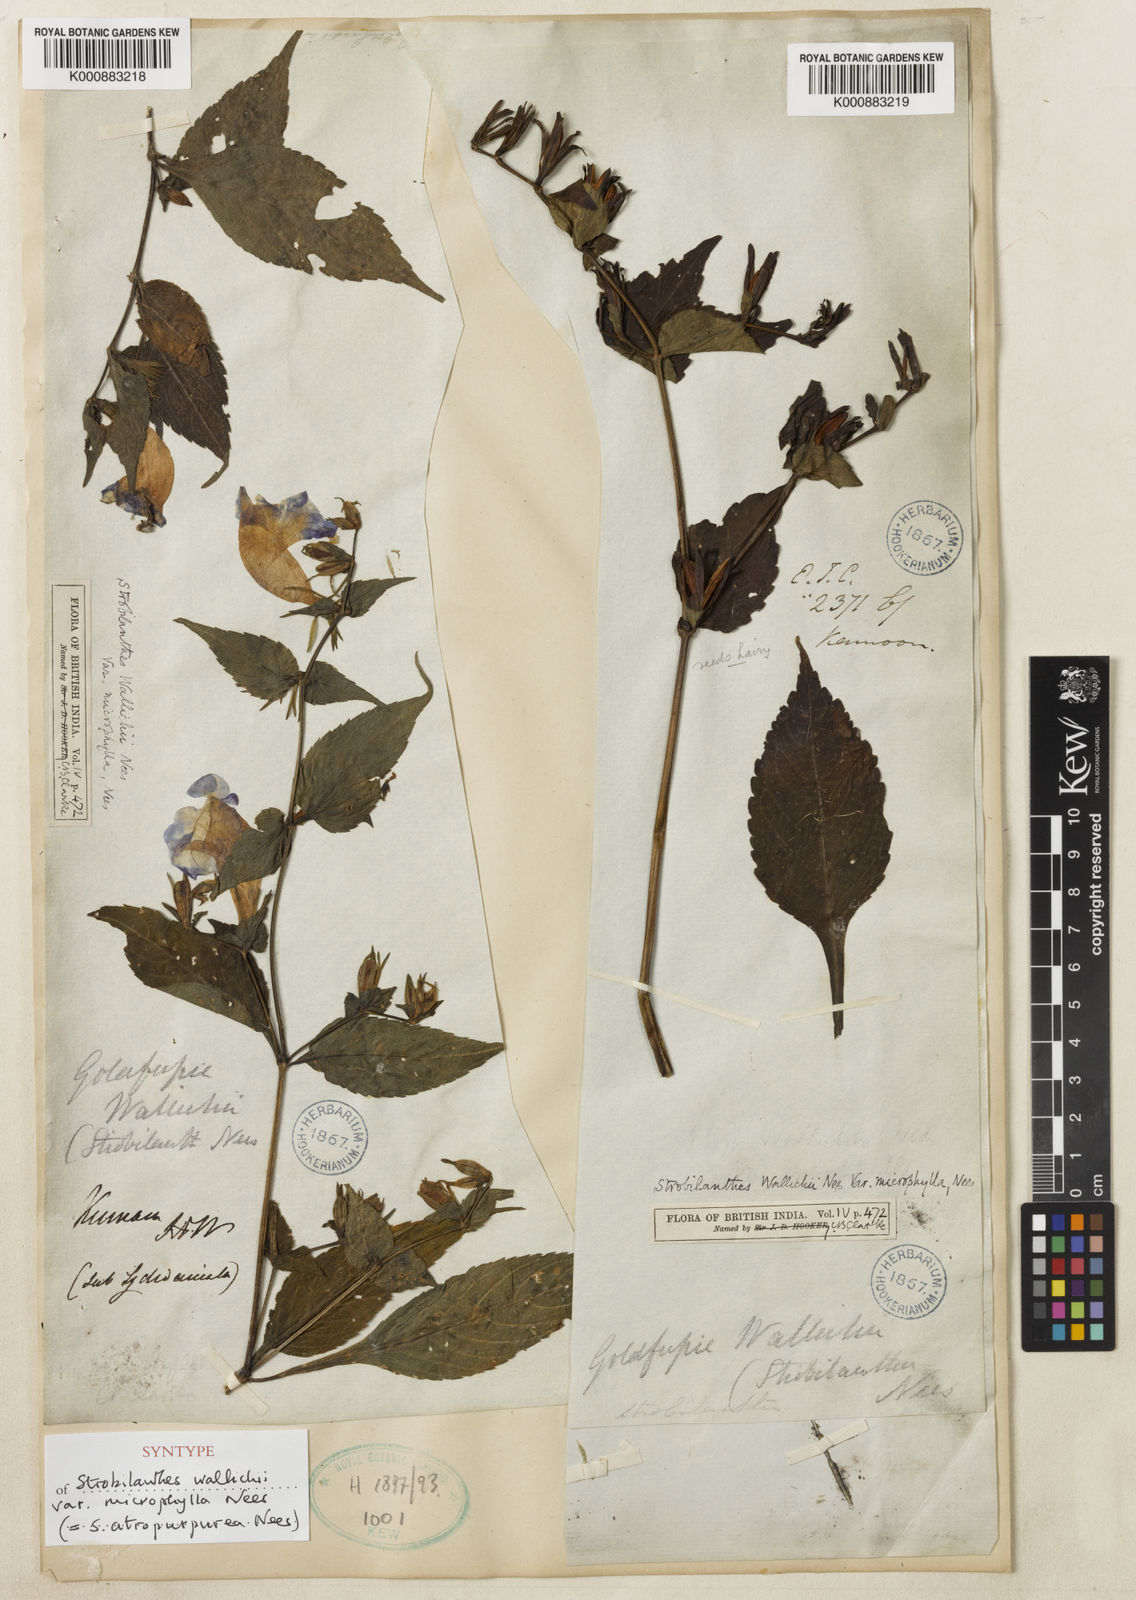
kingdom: Plantae
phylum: Tracheophyta
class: Magnoliopsida
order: Lamiales
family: Acanthaceae
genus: Strobilanthes
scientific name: Strobilanthes wallichii
